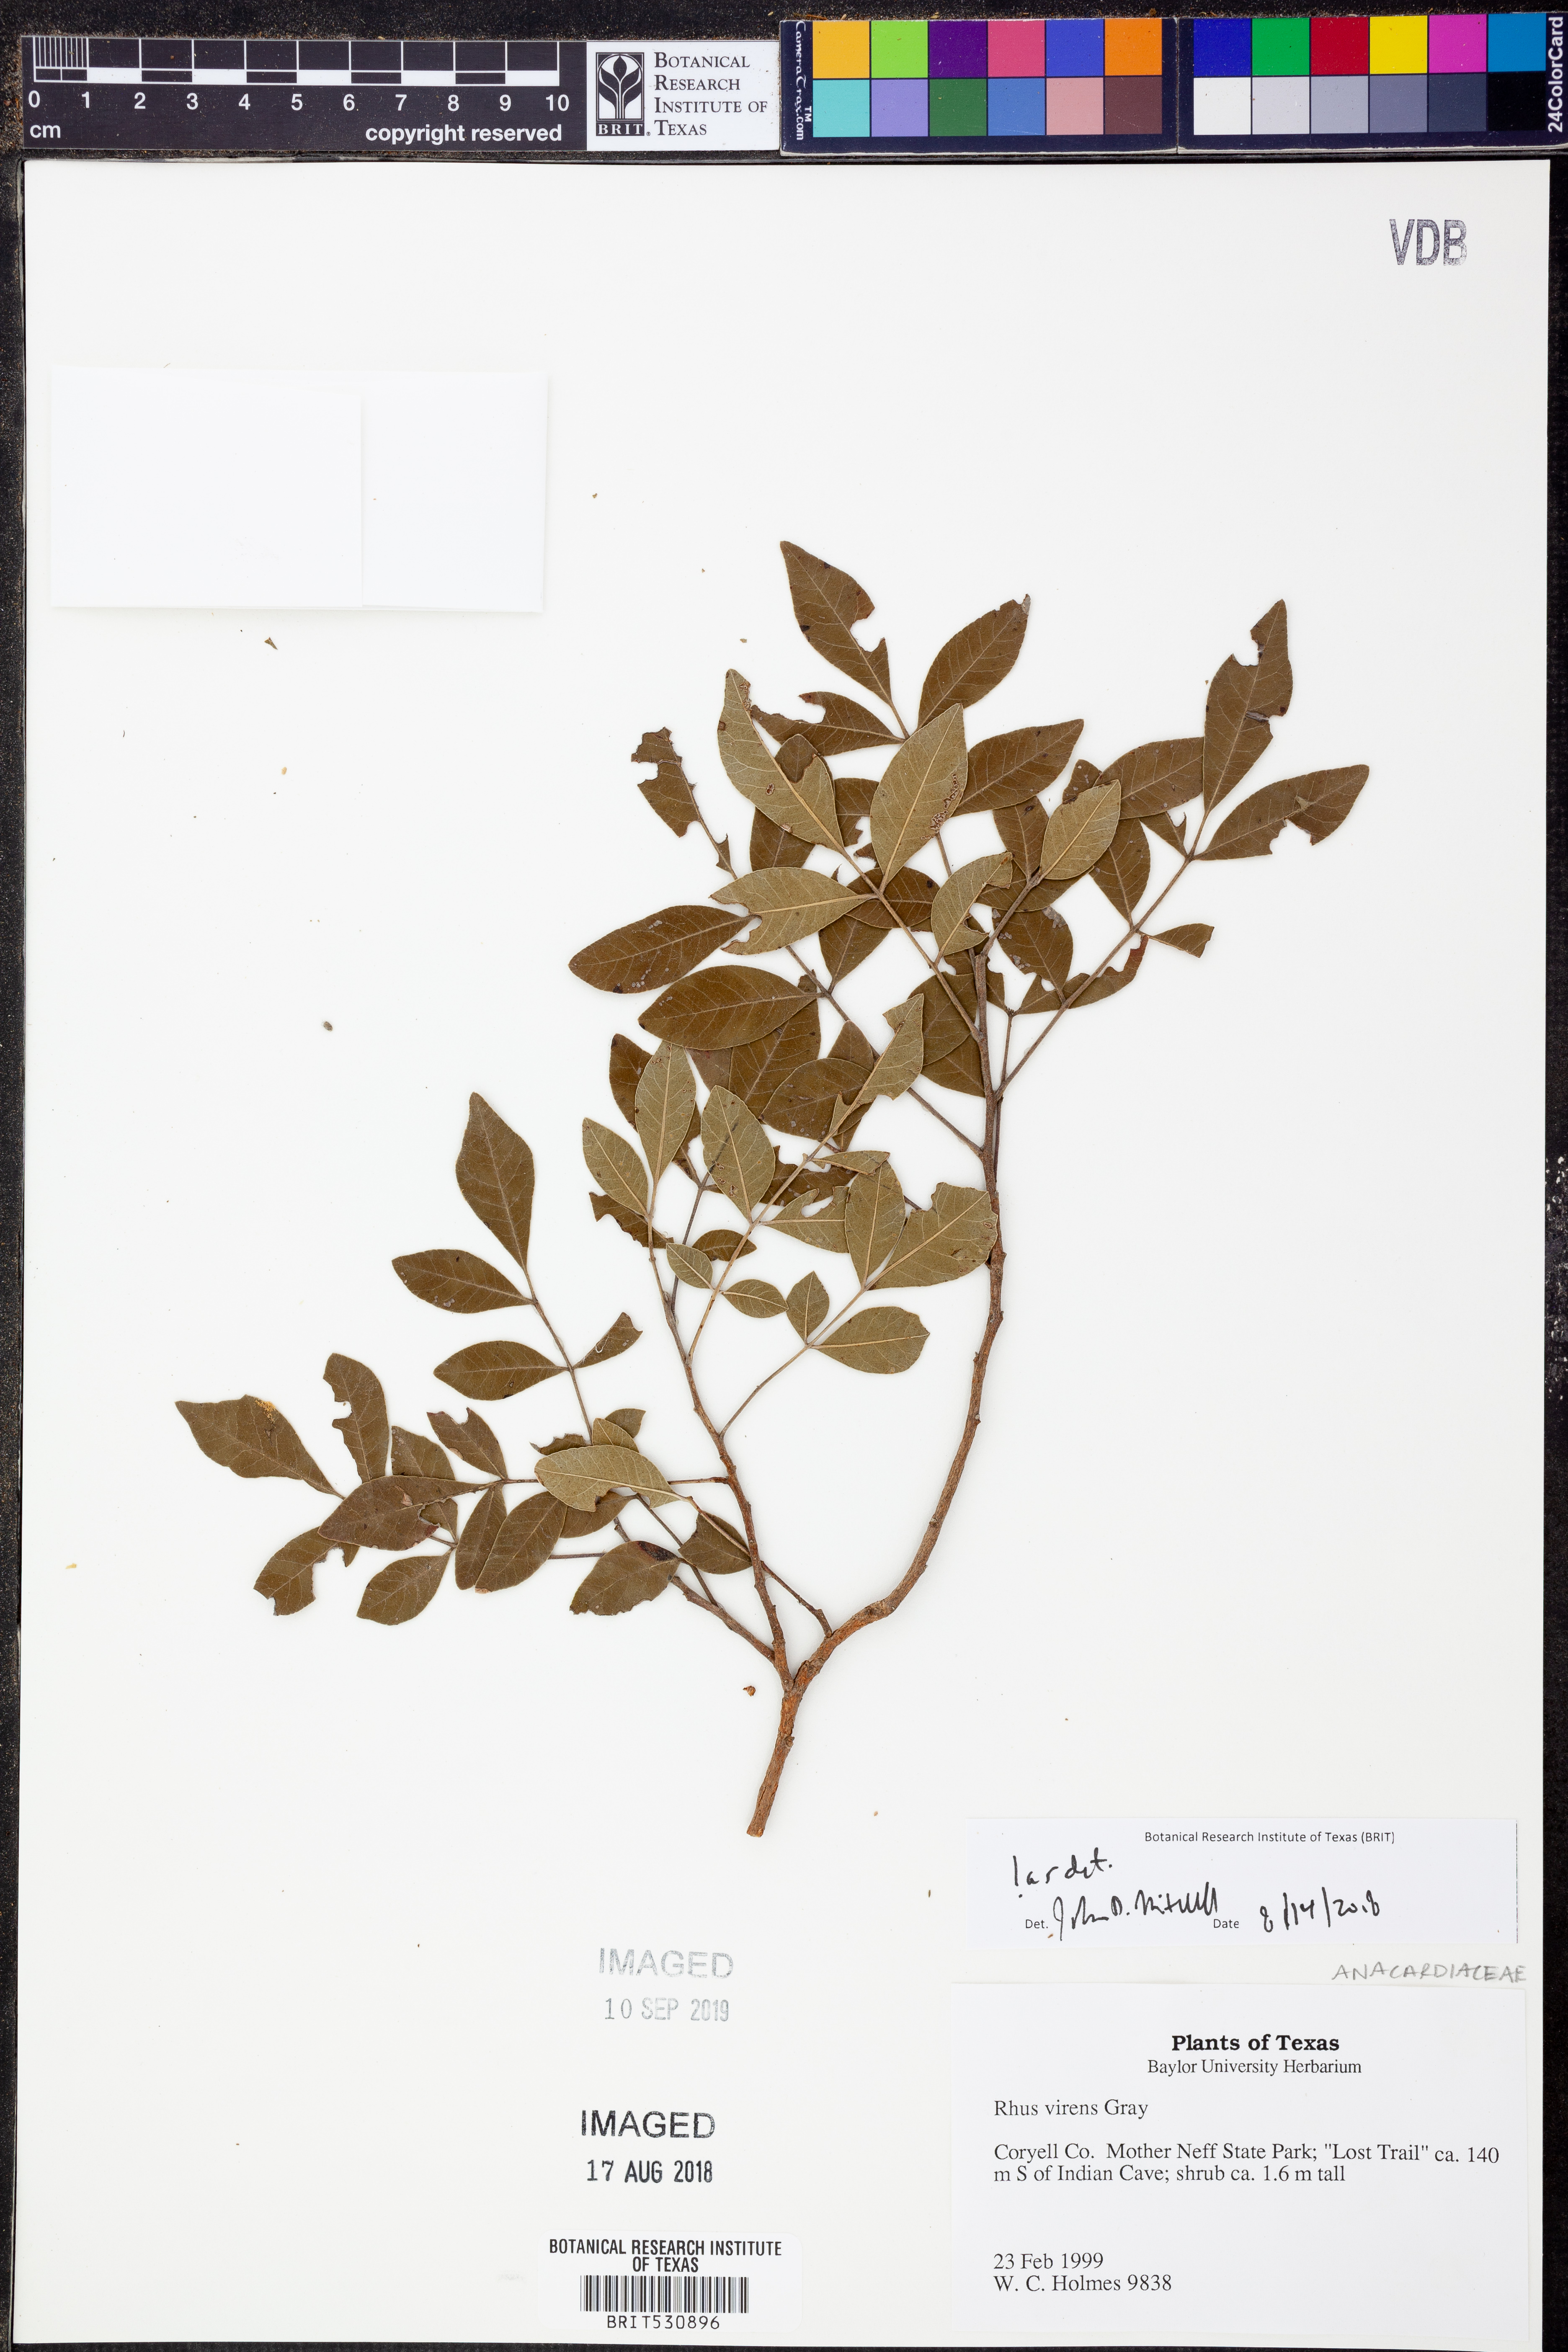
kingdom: Plantae
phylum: Tracheophyta
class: Magnoliopsida
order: Sapindales
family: Anacardiaceae
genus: Rhus
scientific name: Rhus virens
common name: Evergreen sumac
